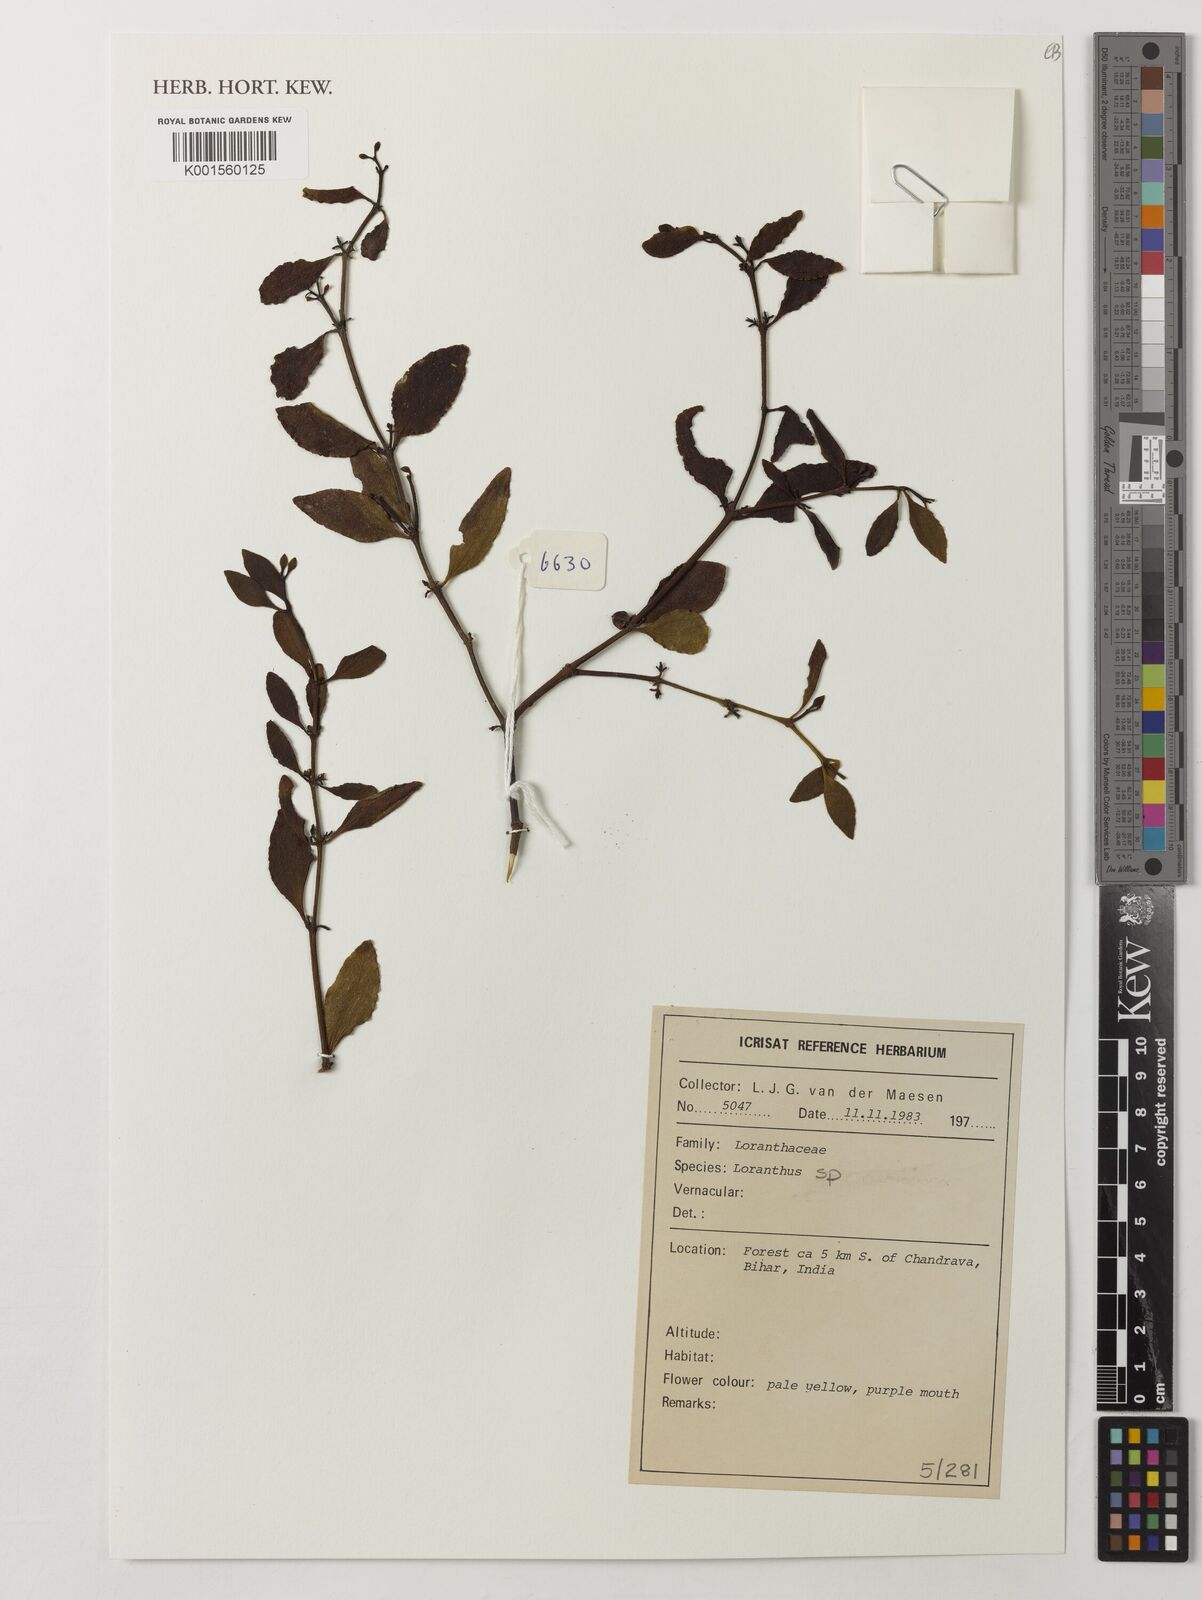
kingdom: Plantae
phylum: Tracheophyta
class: Magnoliopsida
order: Santalales
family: Loranthaceae
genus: Loranthus
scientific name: Loranthus
